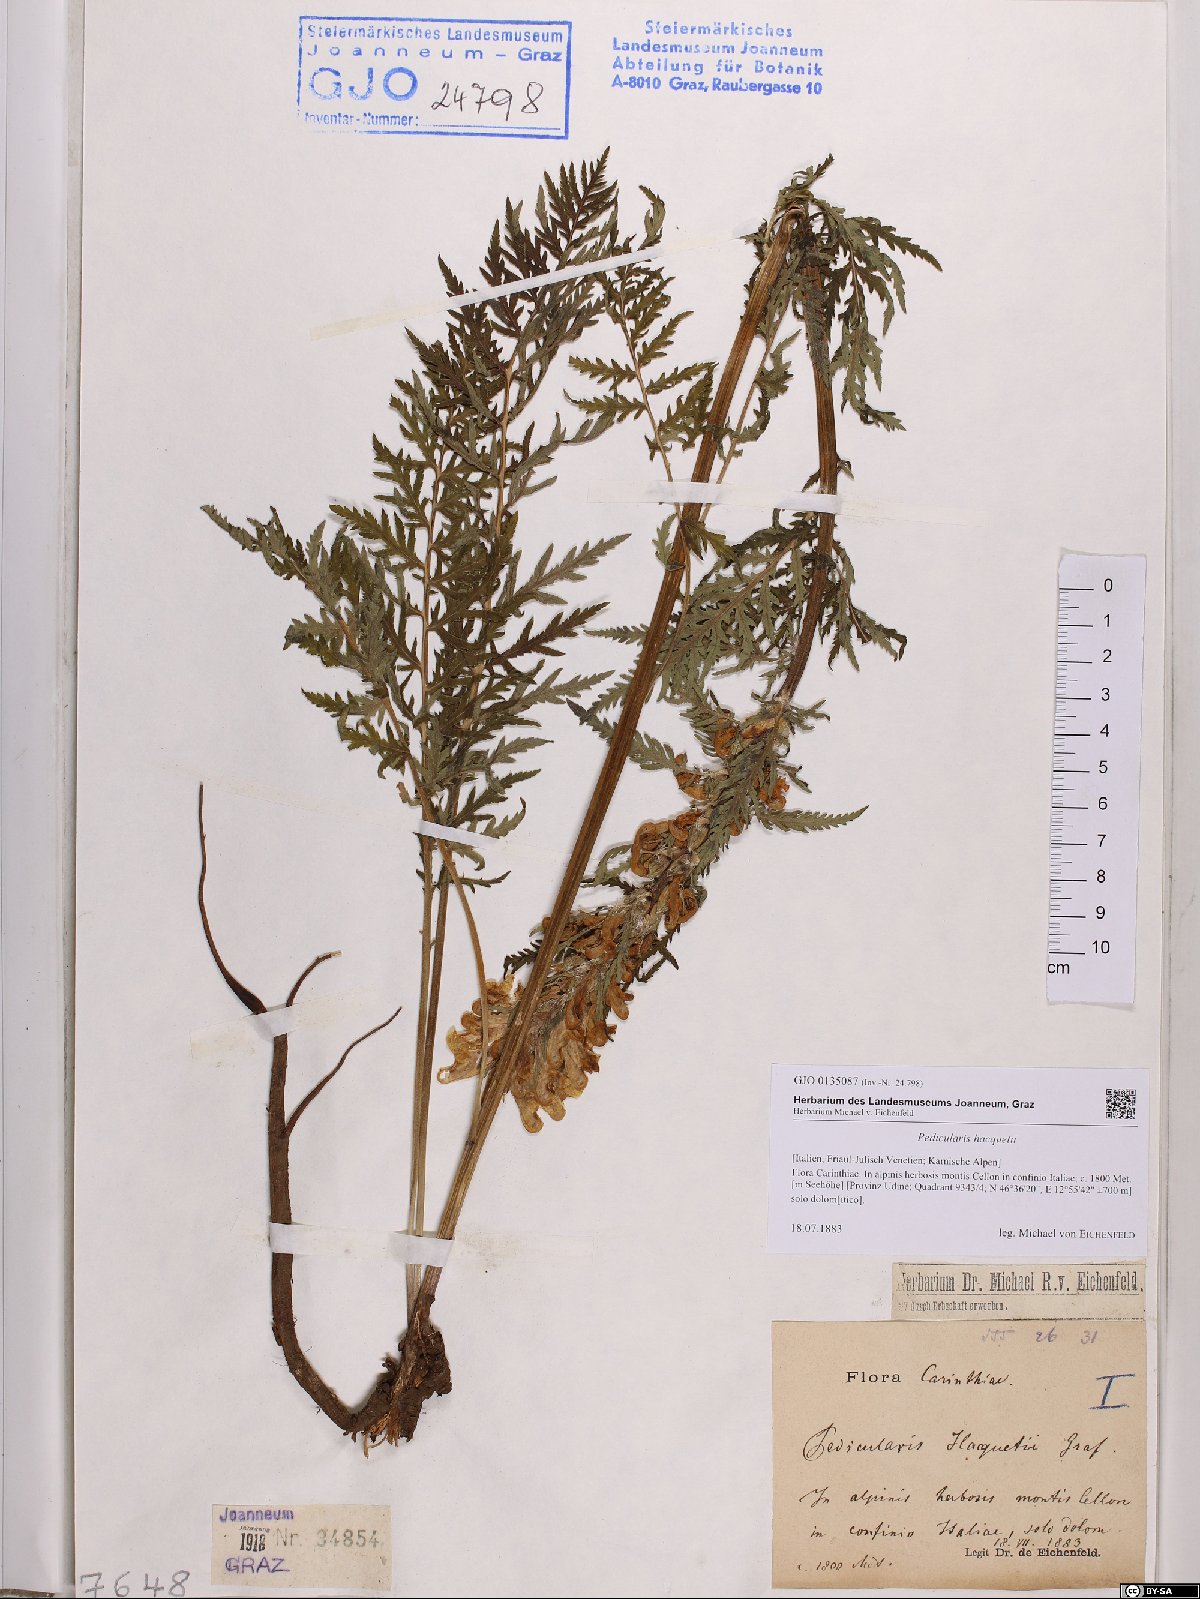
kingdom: Plantae
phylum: Tracheophyta
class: Magnoliopsida
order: Lamiales
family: Orobanchaceae
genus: Pedicularis
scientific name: Pedicularis hacquetii
